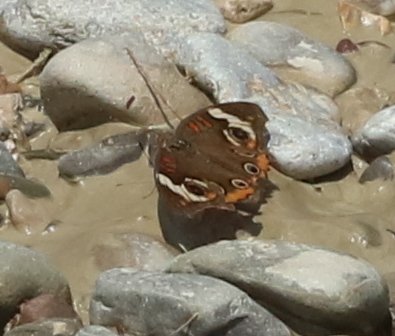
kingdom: Animalia
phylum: Arthropoda
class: Insecta
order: Lepidoptera
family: Nymphalidae
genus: Junonia
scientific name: Junonia coenia
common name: Common Buckeye
